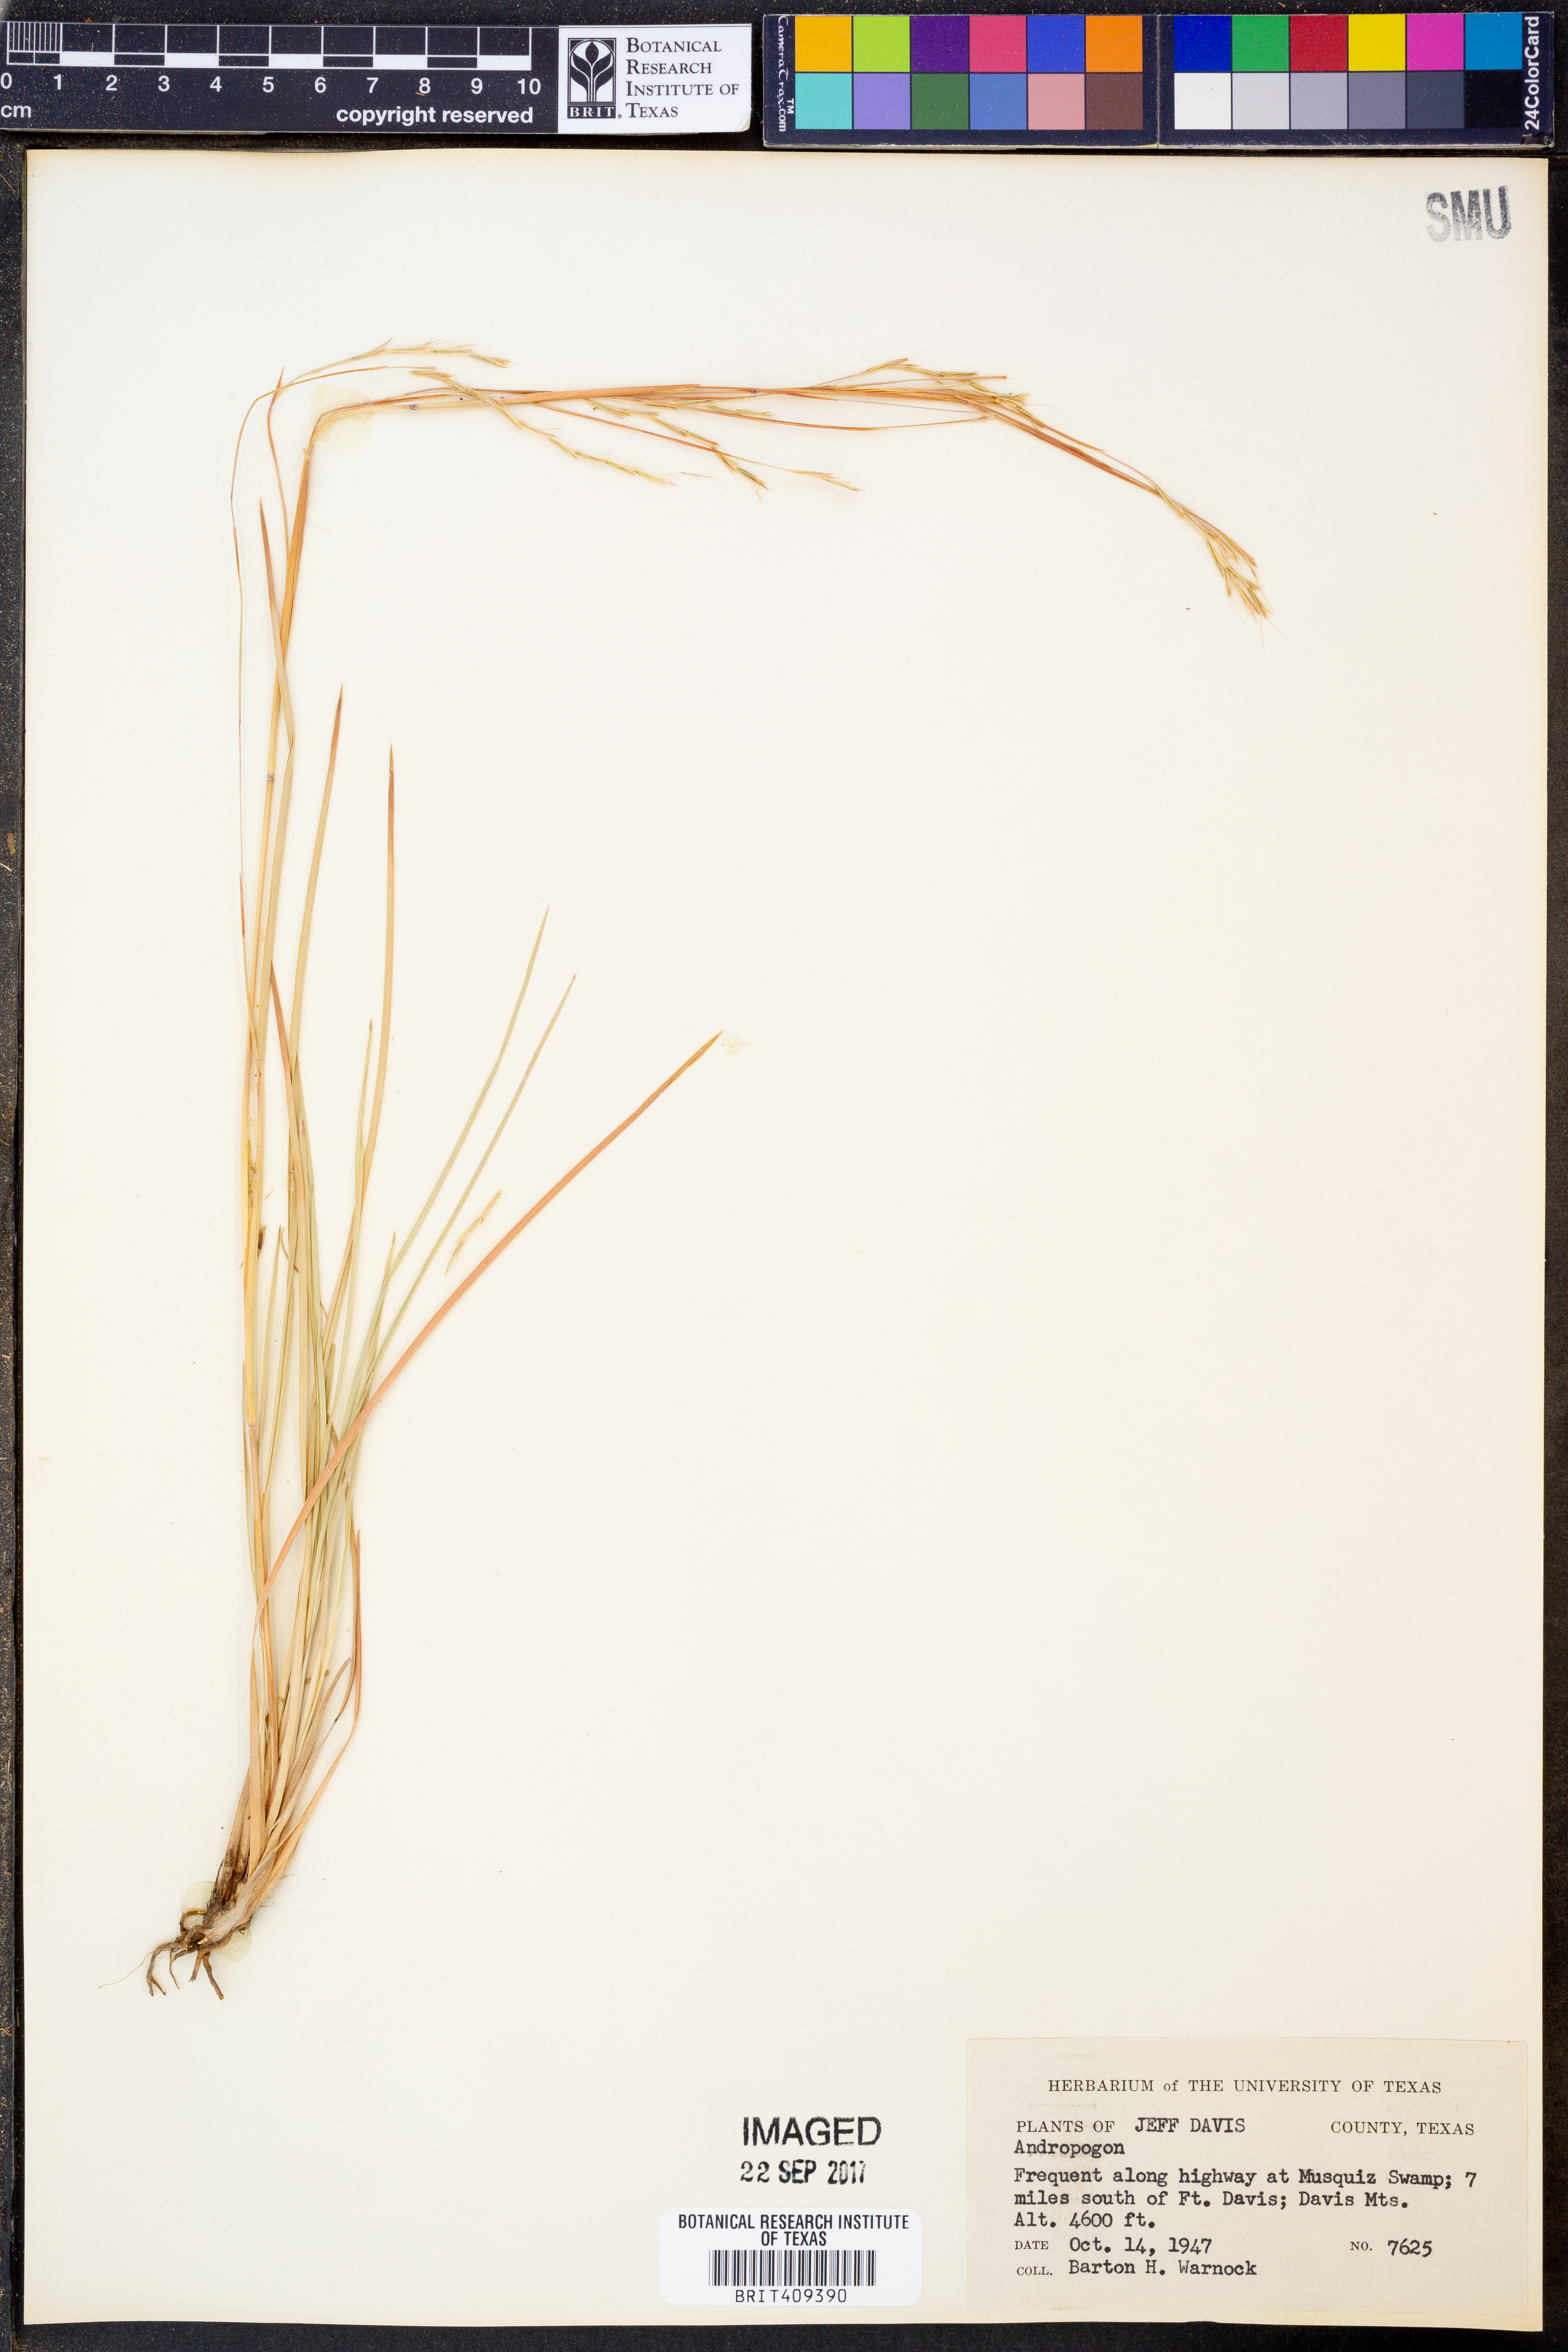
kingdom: Plantae
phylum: Tracheophyta
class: Liliopsida
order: Poales
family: Poaceae
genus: Andropogon
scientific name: Andropogon
